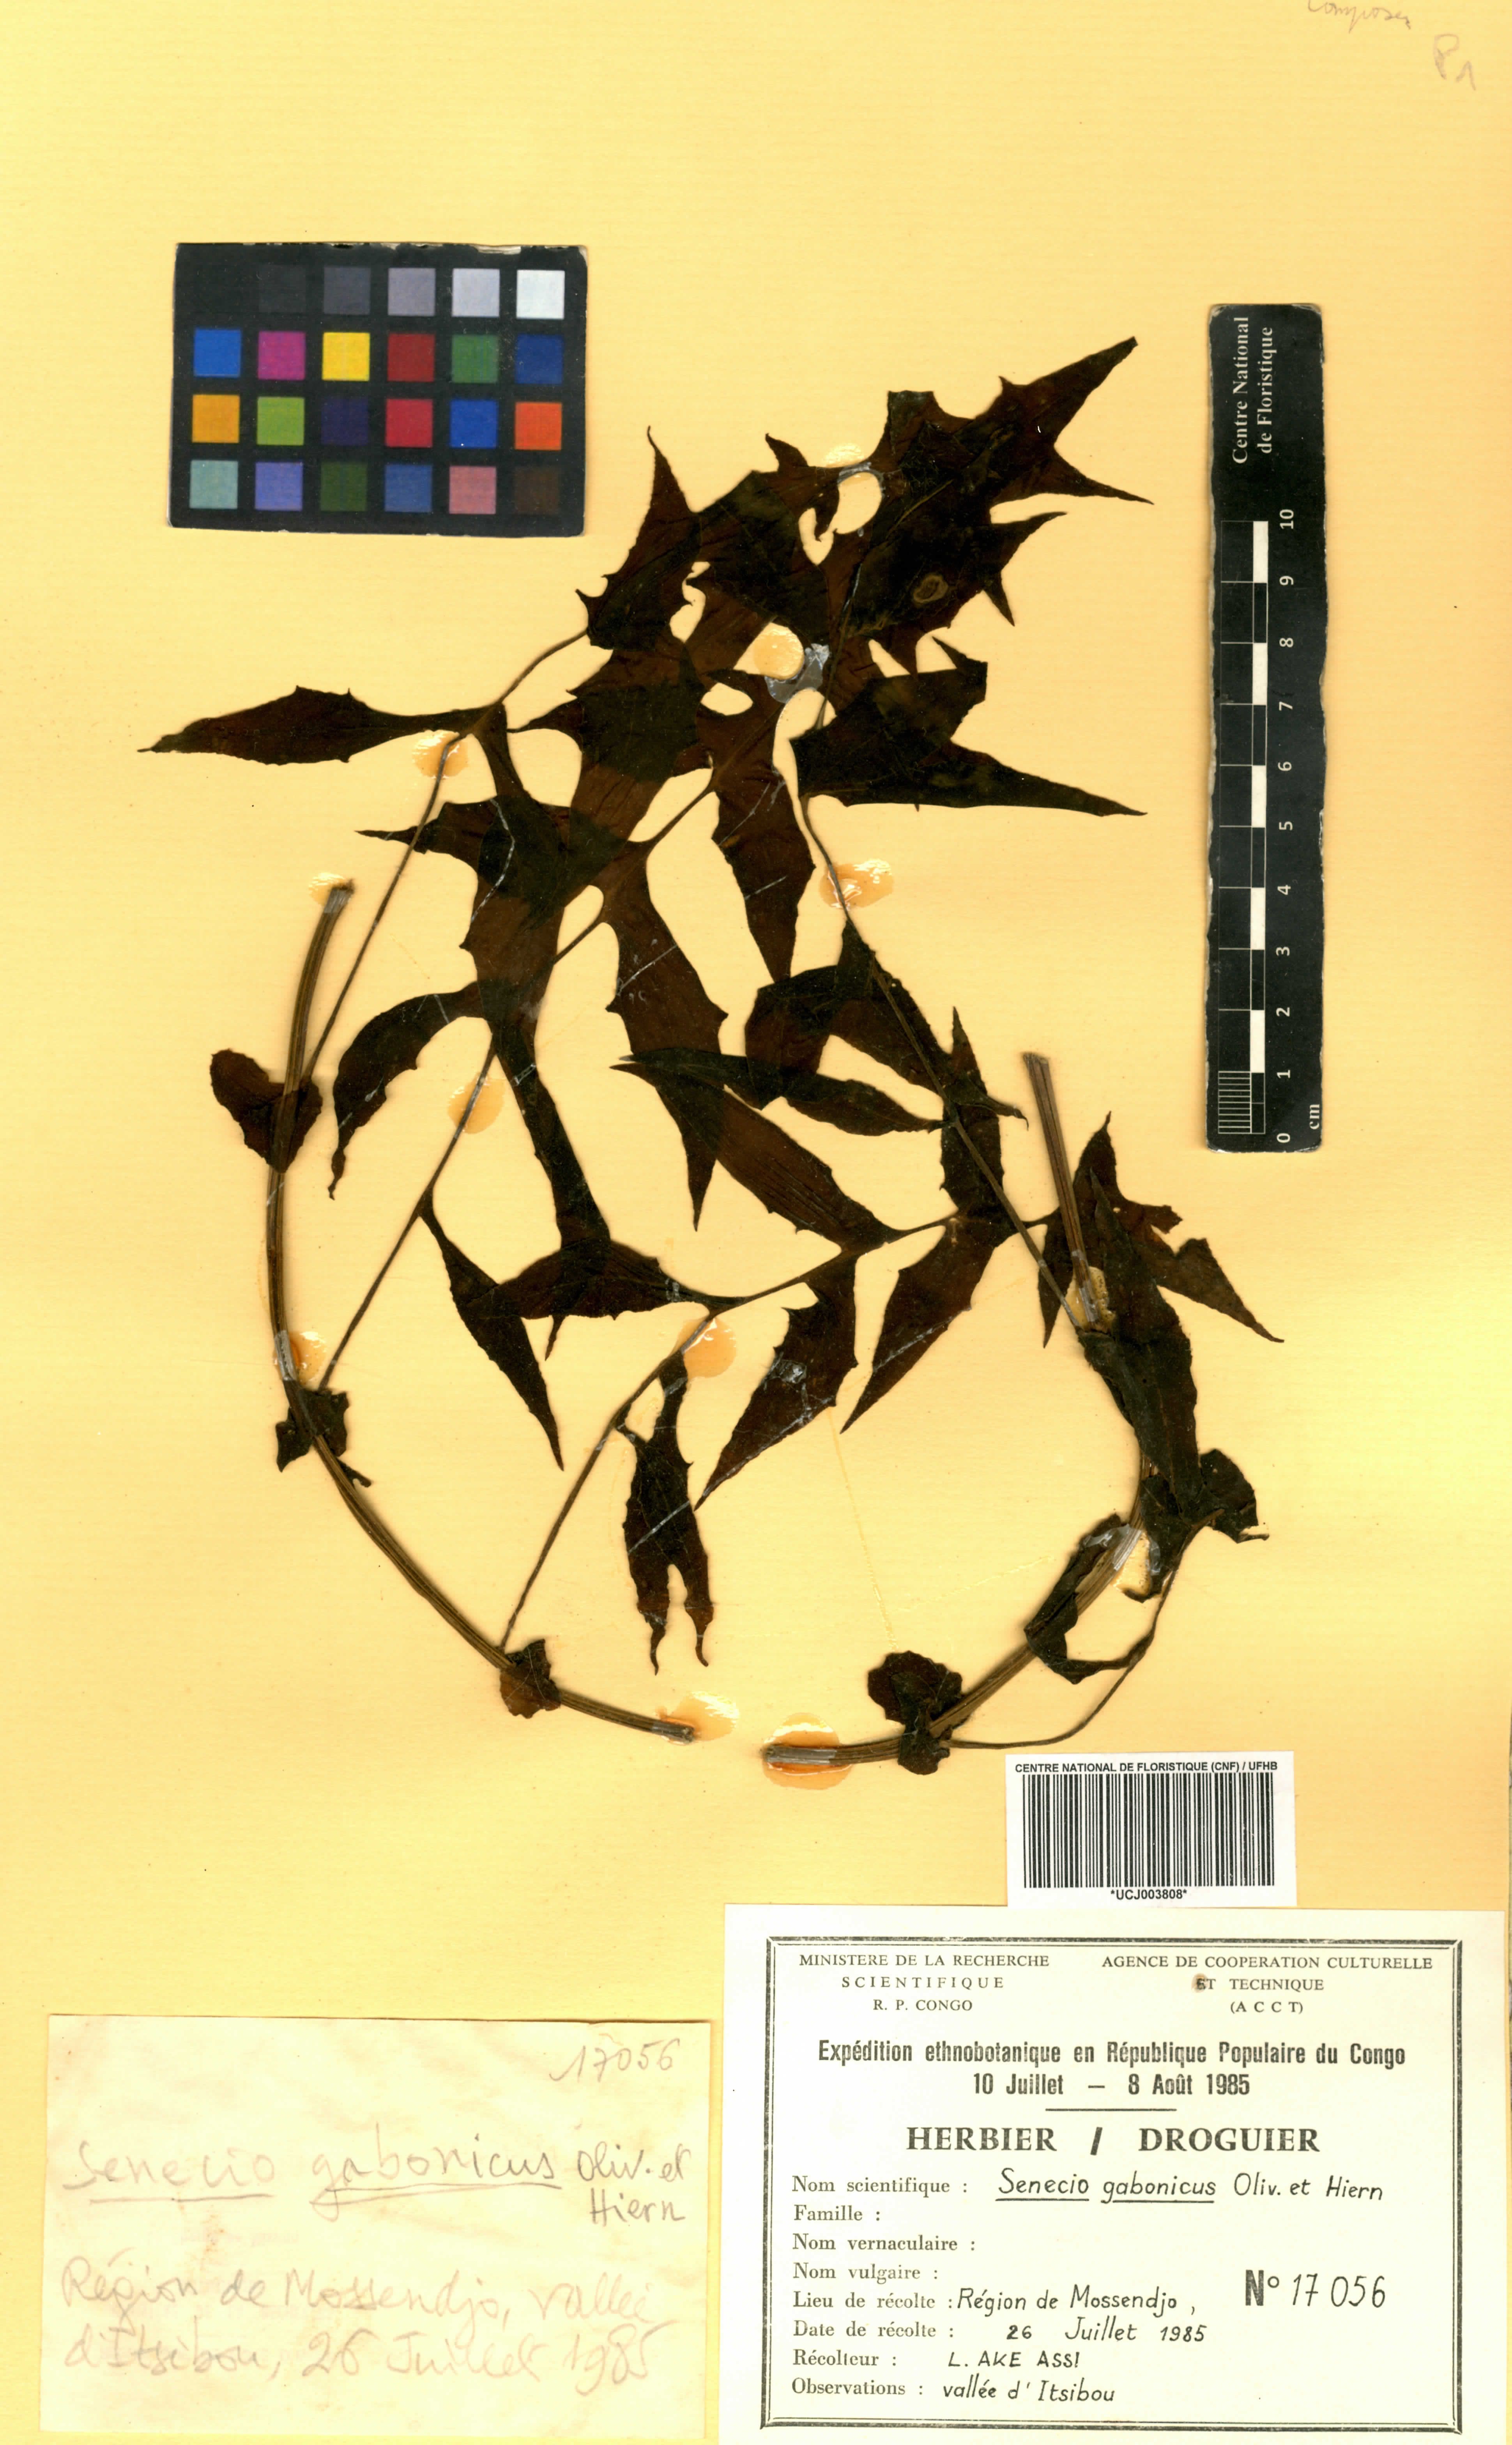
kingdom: Plantae
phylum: Tracheophyta
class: Magnoliopsida
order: Asterales
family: Asteraceae
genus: Solanecio
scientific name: Solanecio angulatus
